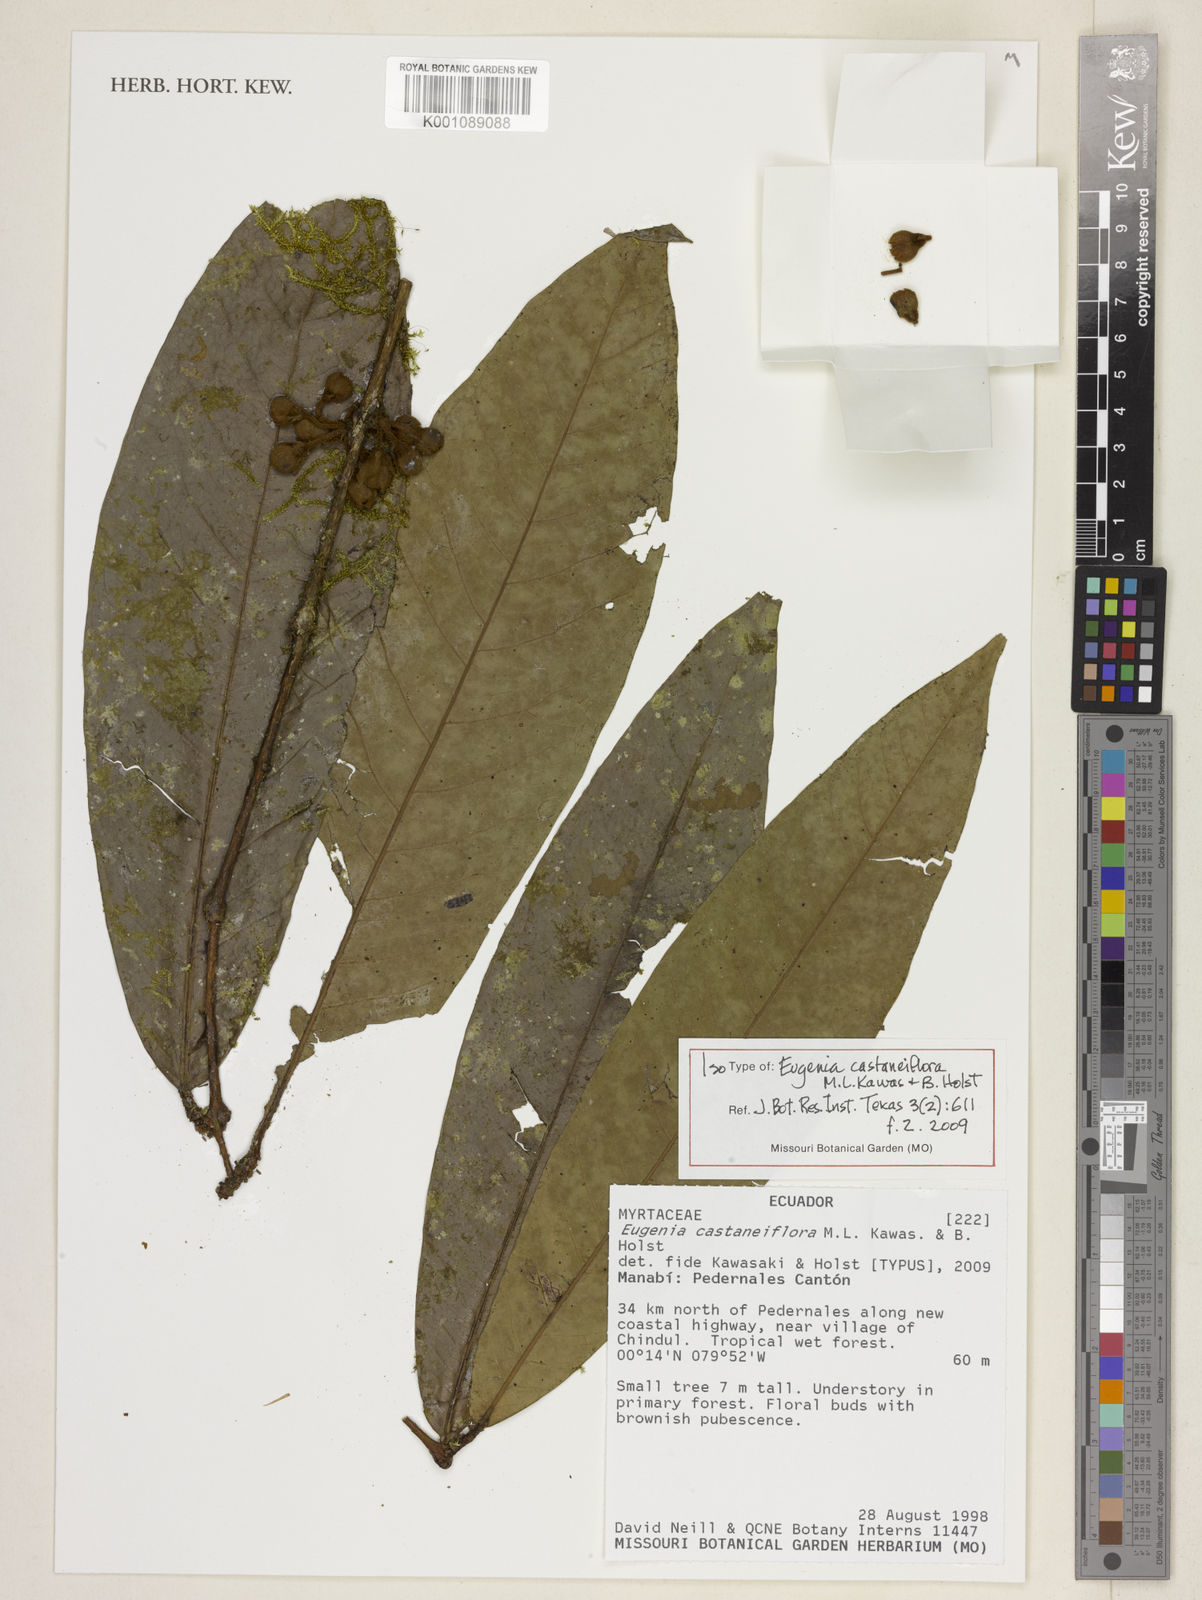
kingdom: Plantae
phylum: Tracheophyta
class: Magnoliopsida
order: Myrtales
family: Myrtaceae
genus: Eugenia
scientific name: Eugenia castaneiflora
